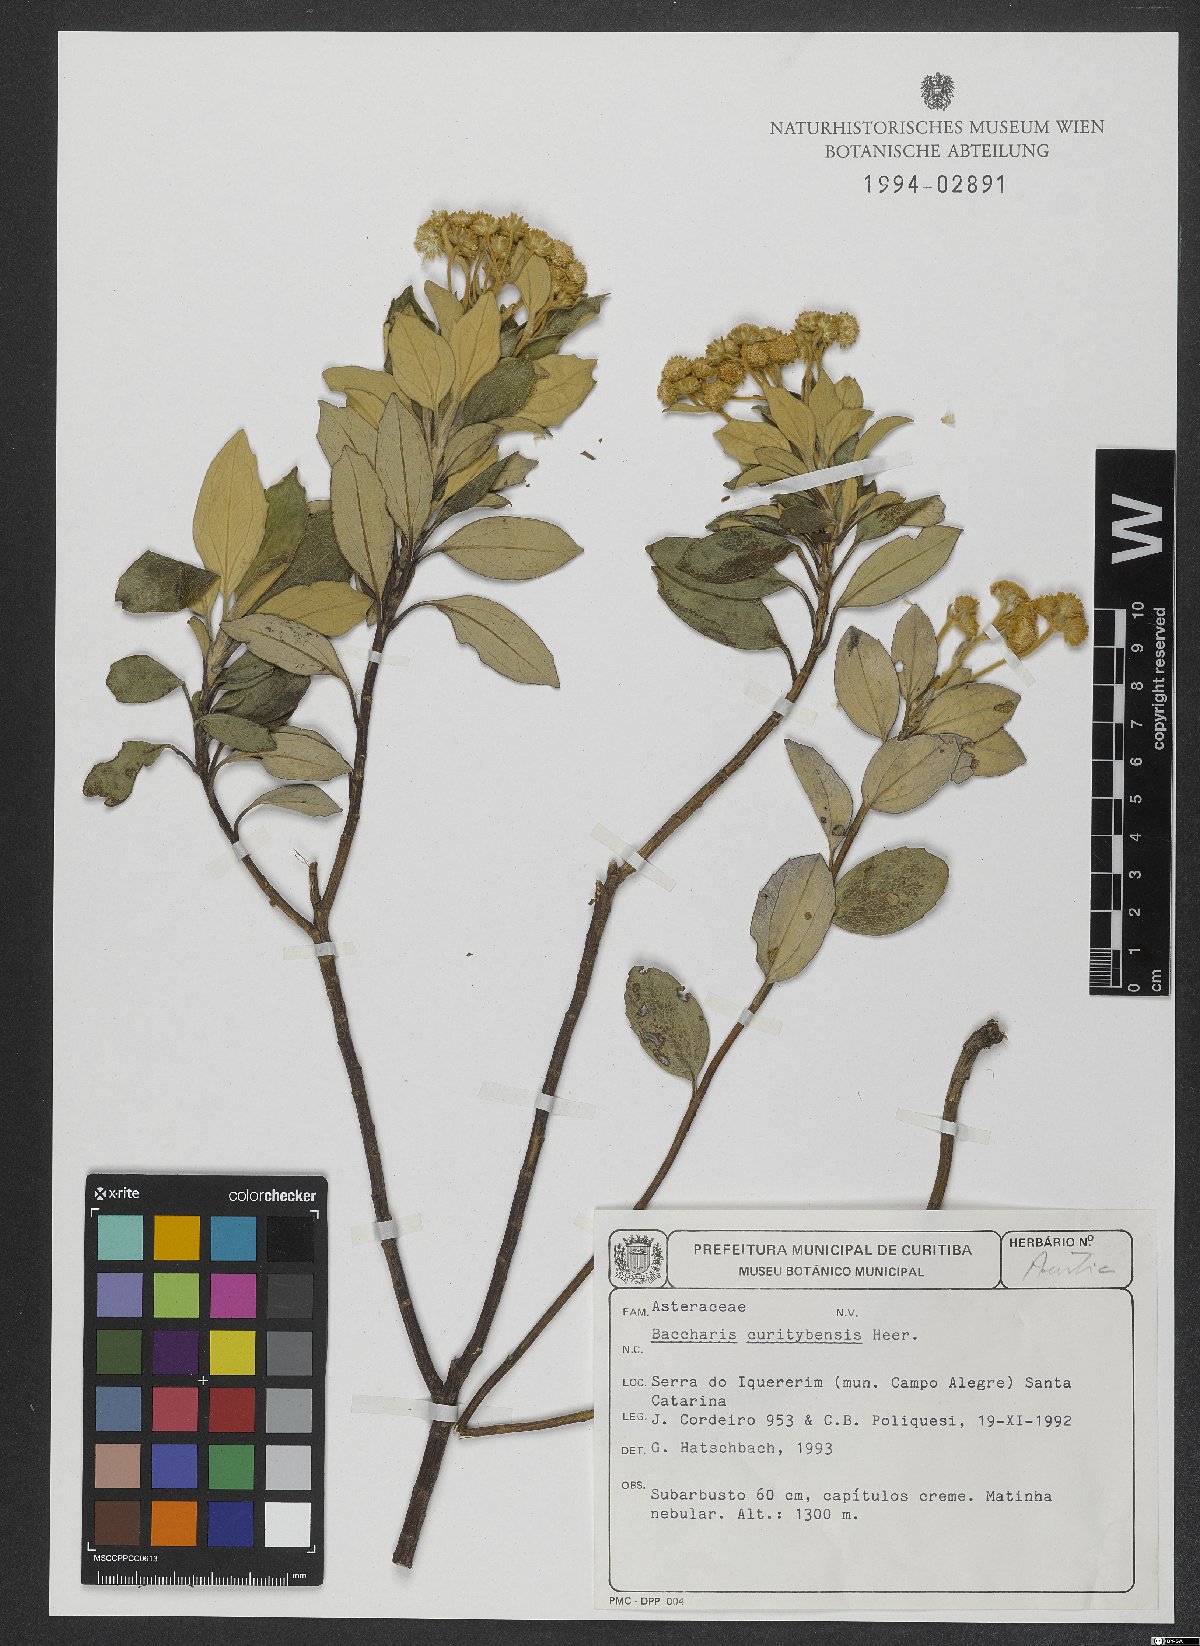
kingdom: Plantae
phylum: Tracheophyta
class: Magnoliopsida
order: Asterales
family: Asteraceae
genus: Baccharis
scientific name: Baccharis curitybensis
